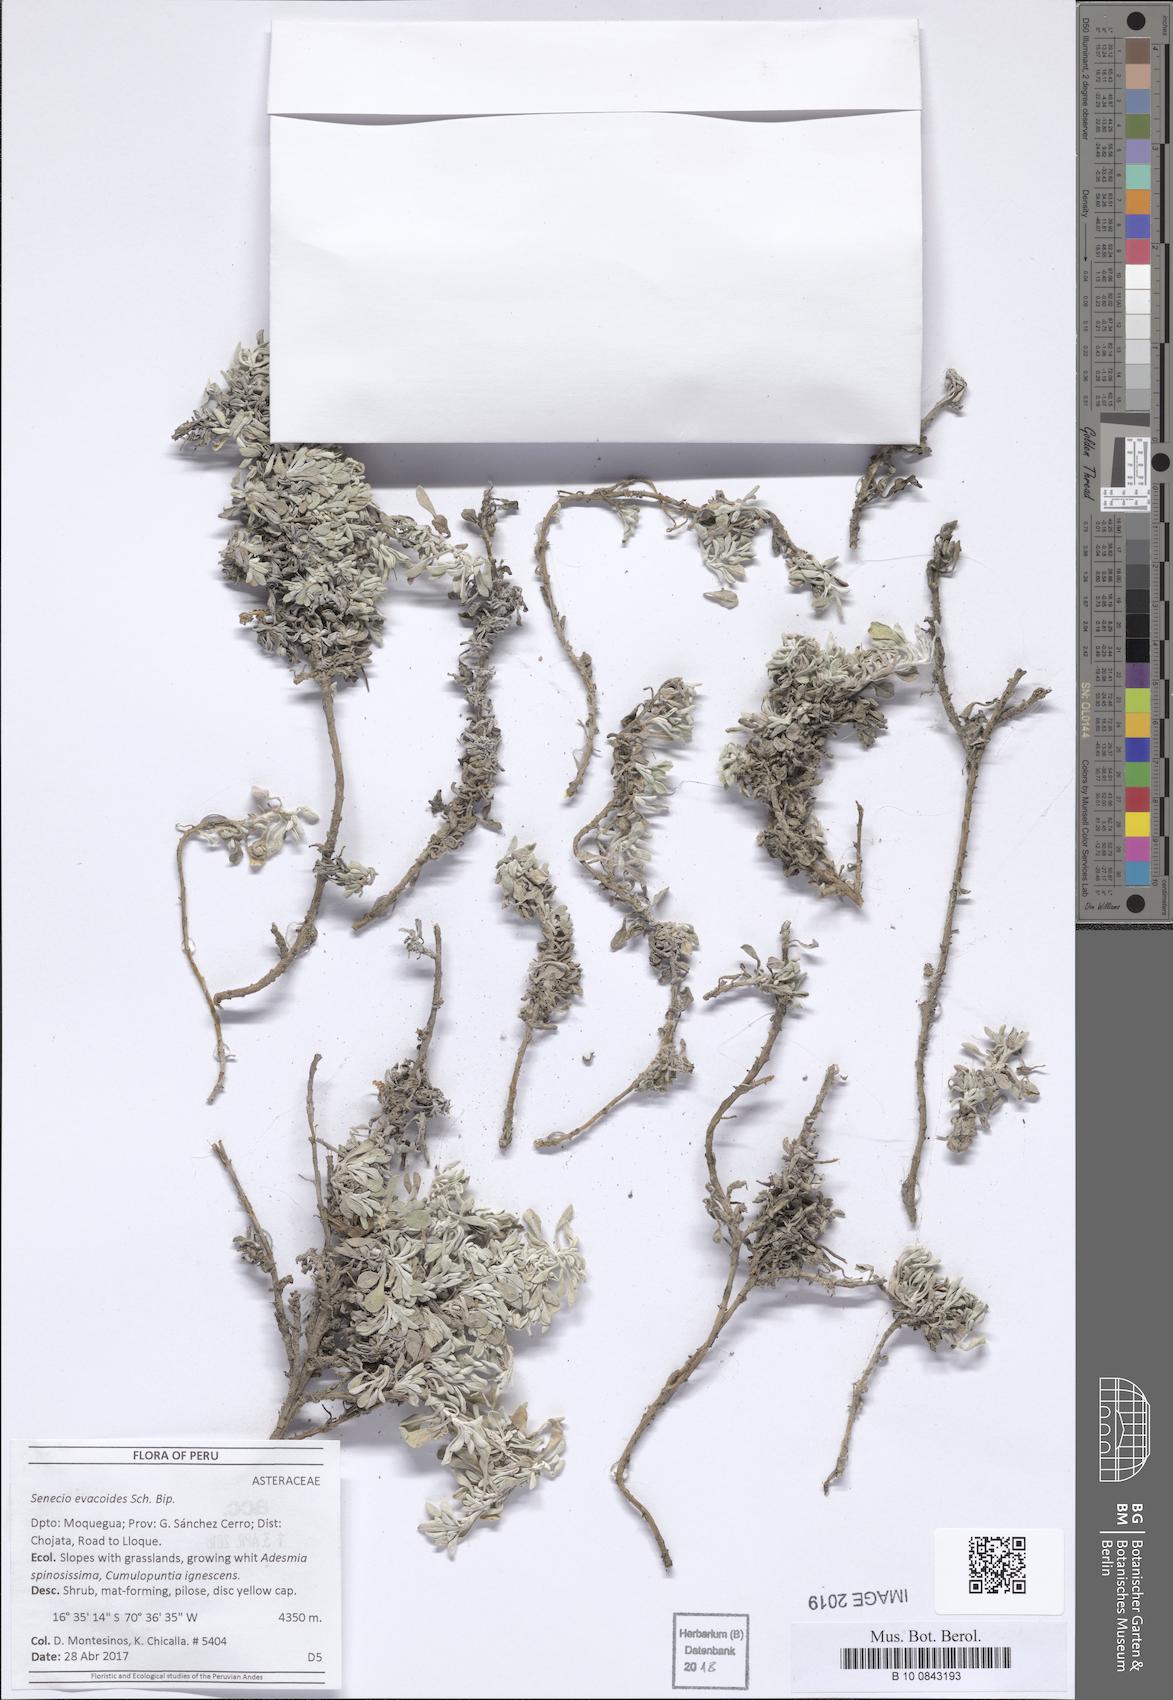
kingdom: Plantae
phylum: Tracheophyta
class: Magnoliopsida
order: Asterales
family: Asteraceae
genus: Senecio
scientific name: Senecio evacoides
